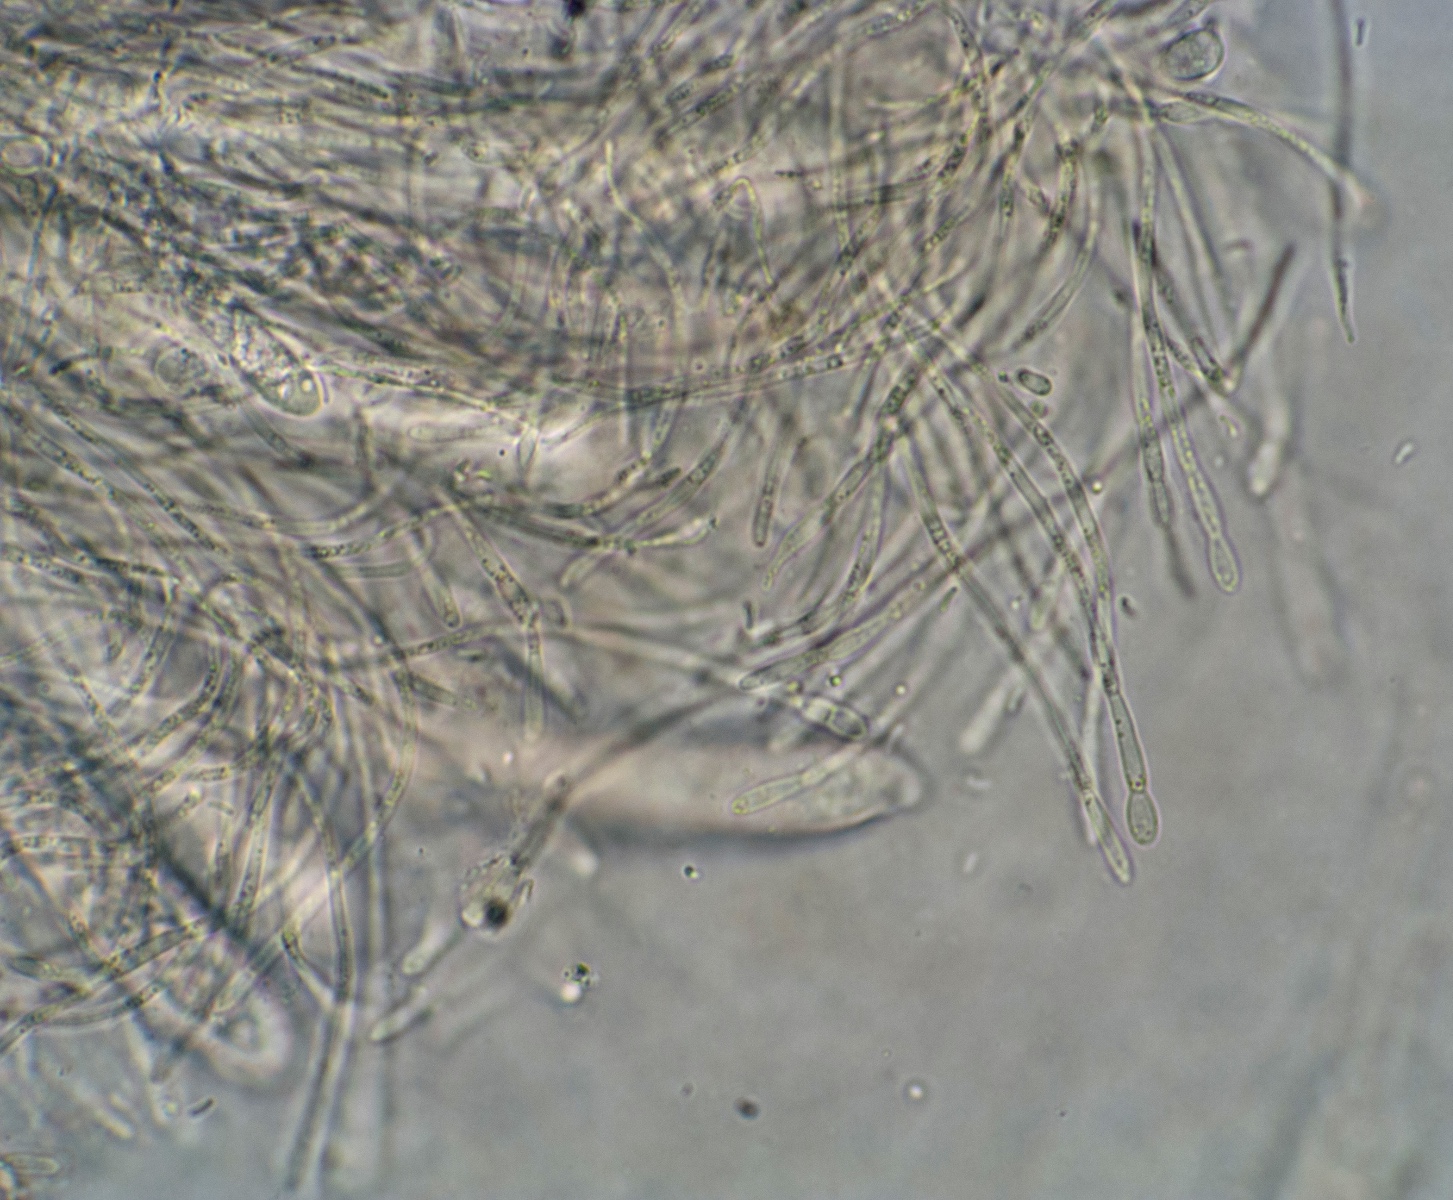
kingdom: Fungi
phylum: Ascomycota
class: Leotiomycetes
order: Leotiales
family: Tympanidaceae
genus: Vexillomyces
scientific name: Vexillomyces xylophilus
